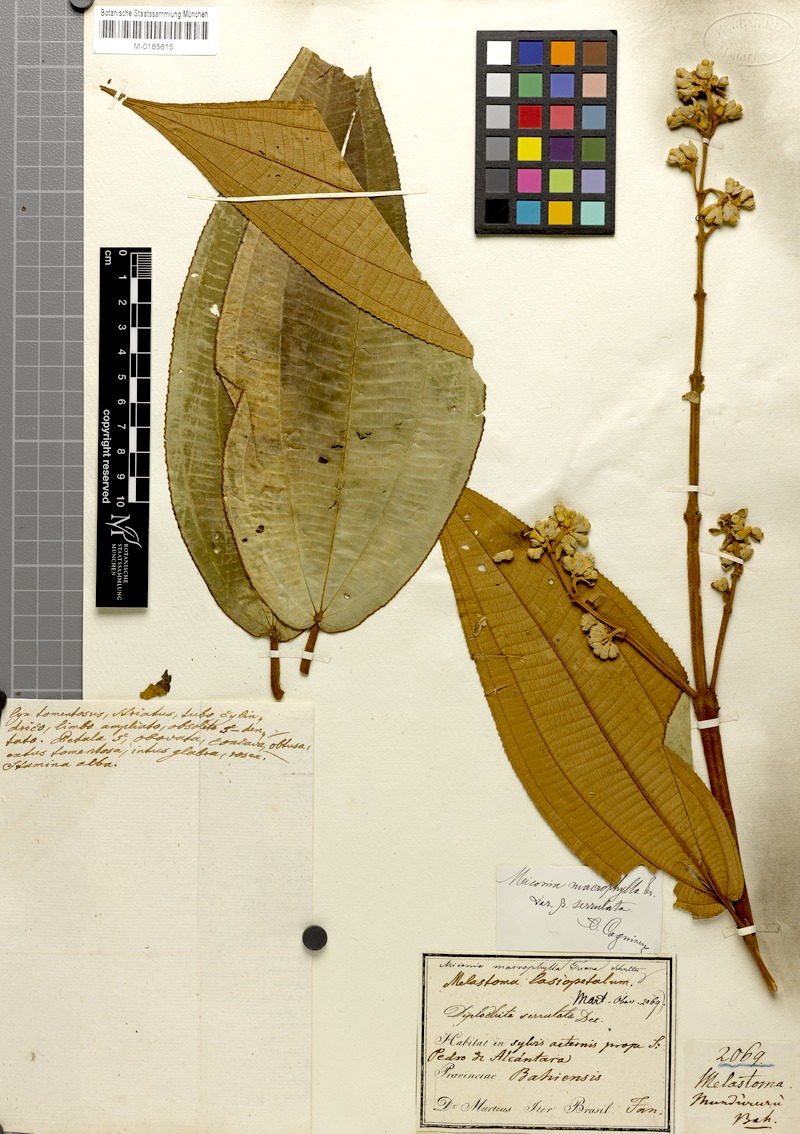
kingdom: Plantae
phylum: Tracheophyta
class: Magnoliopsida
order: Myrtales
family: Melastomataceae
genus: Miconia
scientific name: Miconia serrulata
